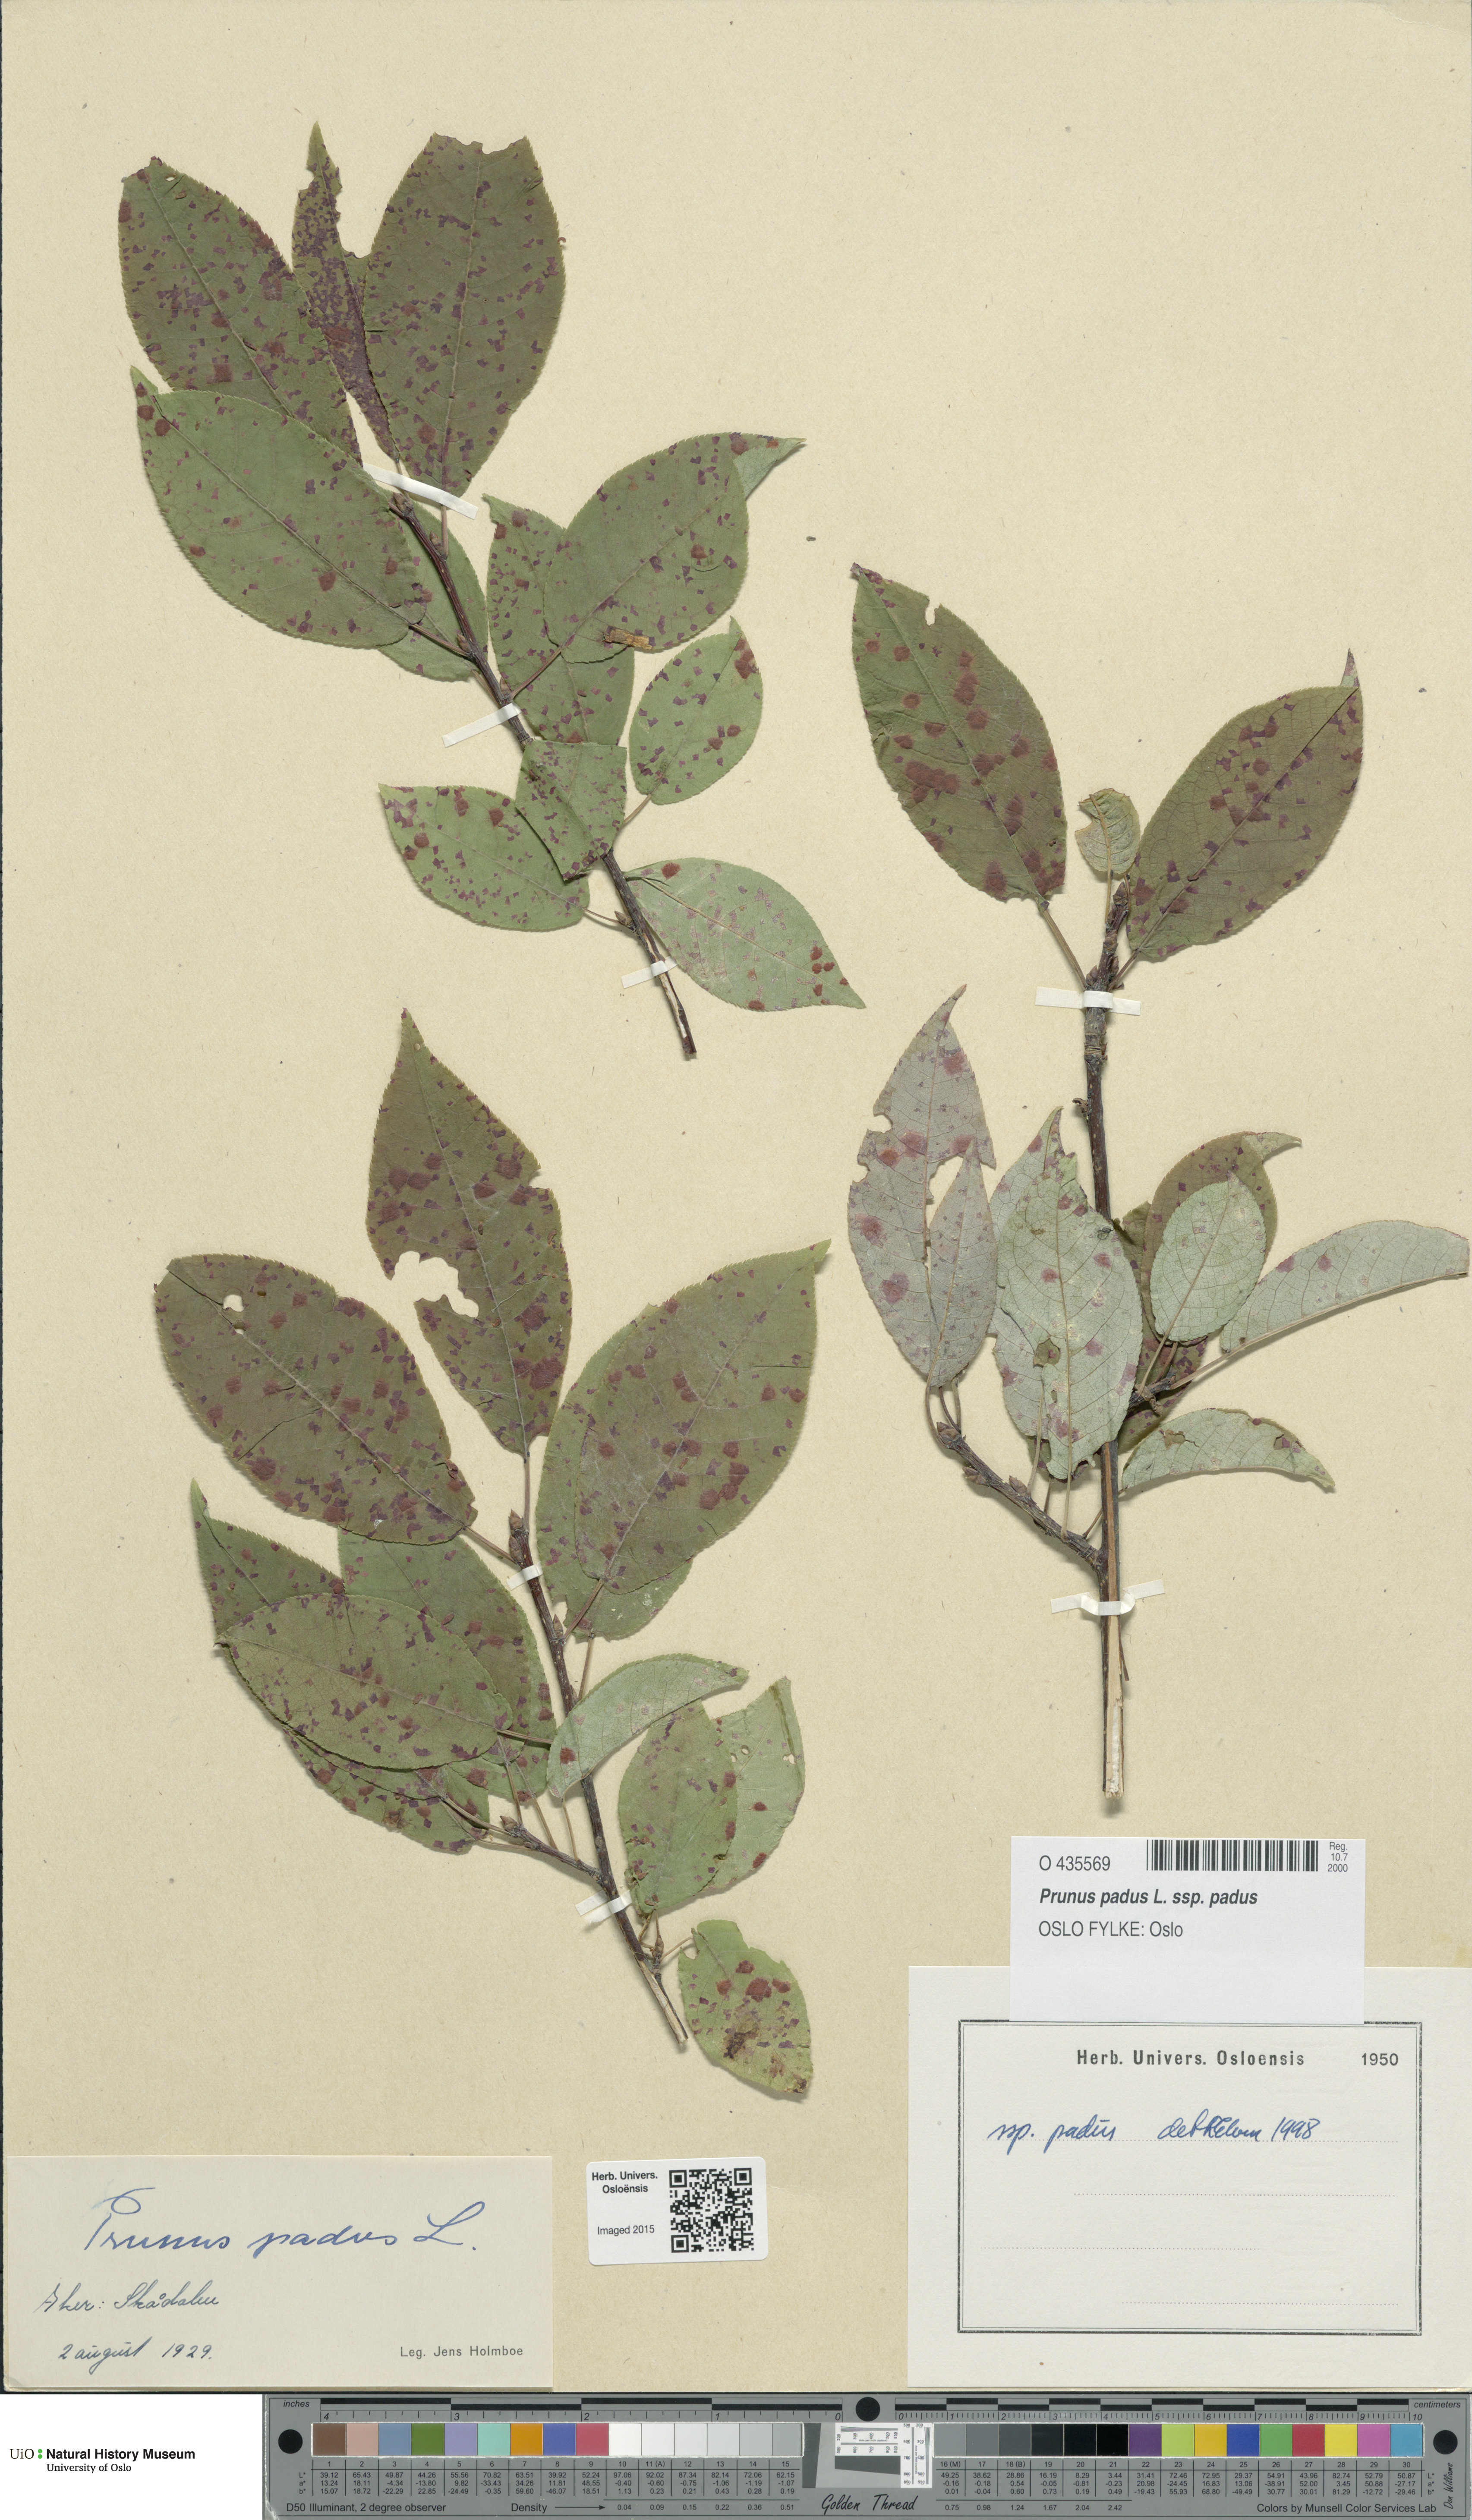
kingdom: Plantae
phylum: Tracheophyta
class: Magnoliopsida
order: Rosales
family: Rosaceae
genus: Prunus
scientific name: Prunus padus
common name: Bird cherry
